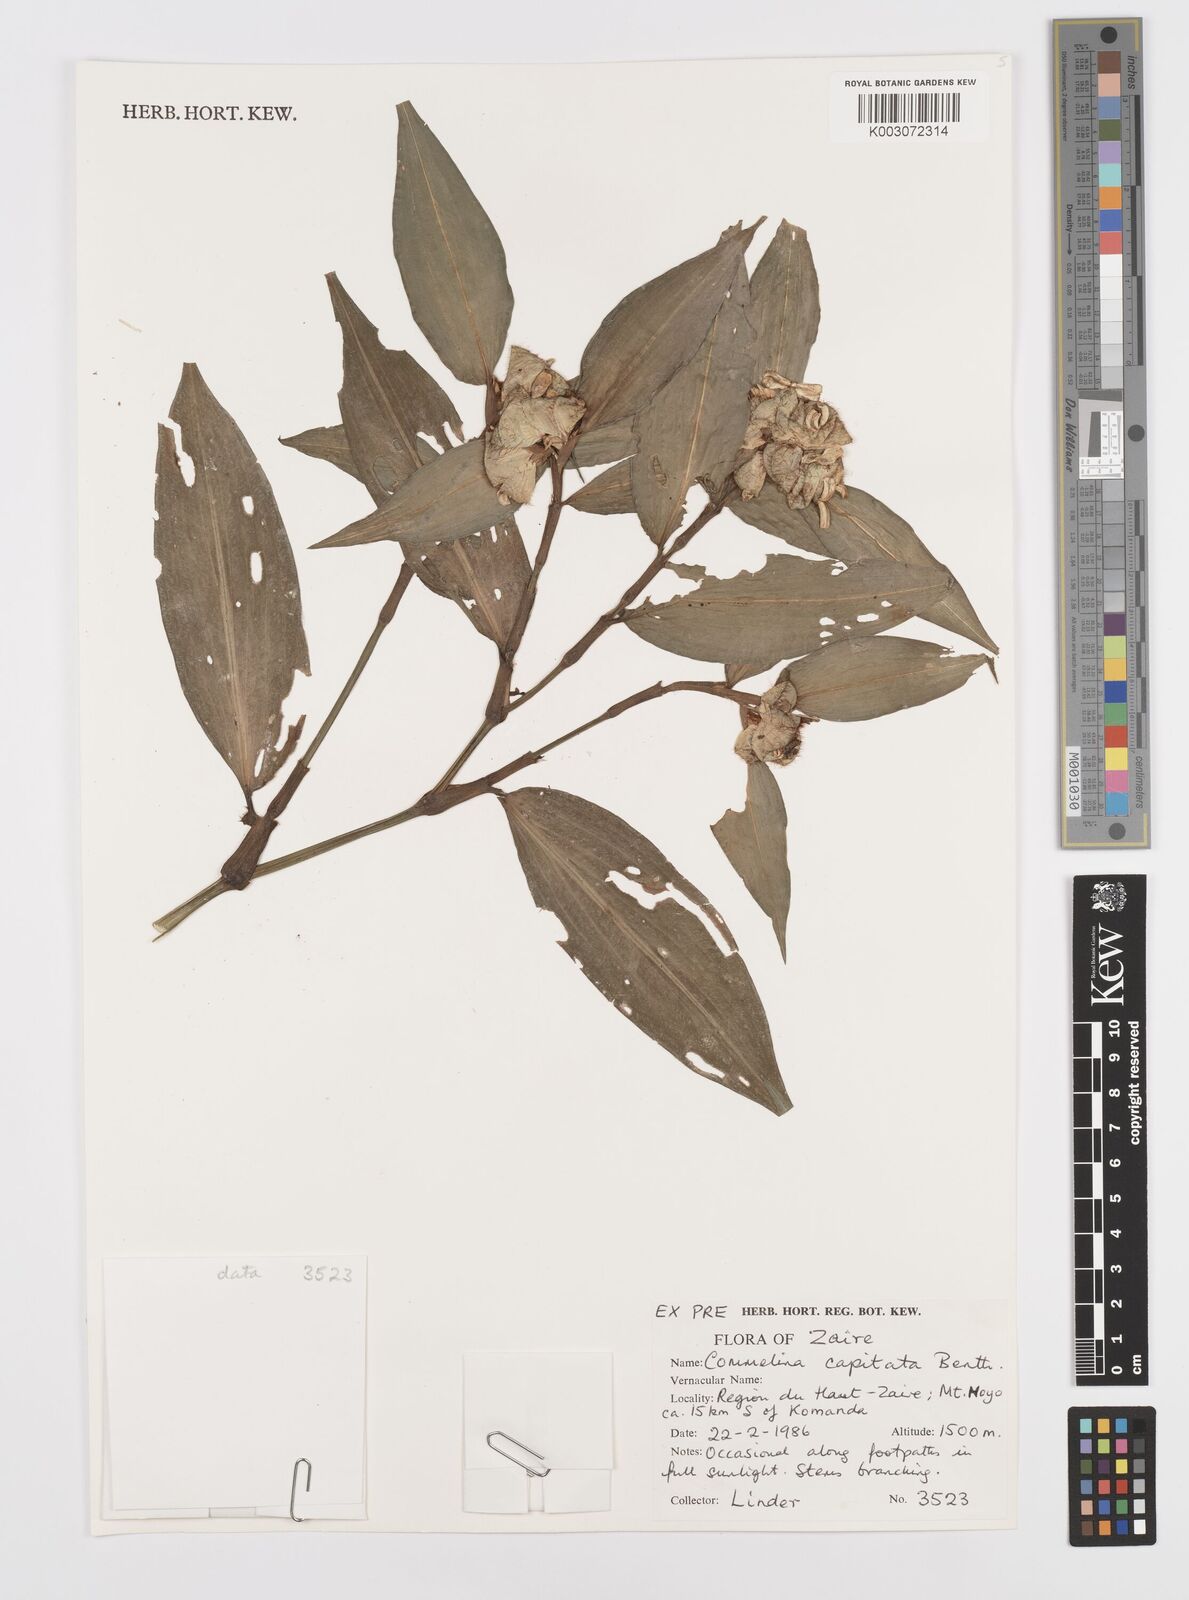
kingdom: Plantae
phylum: Tracheophyta
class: Liliopsida
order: Commelinales
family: Commelinaceae
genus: Commelina
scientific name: Commelina capitata
